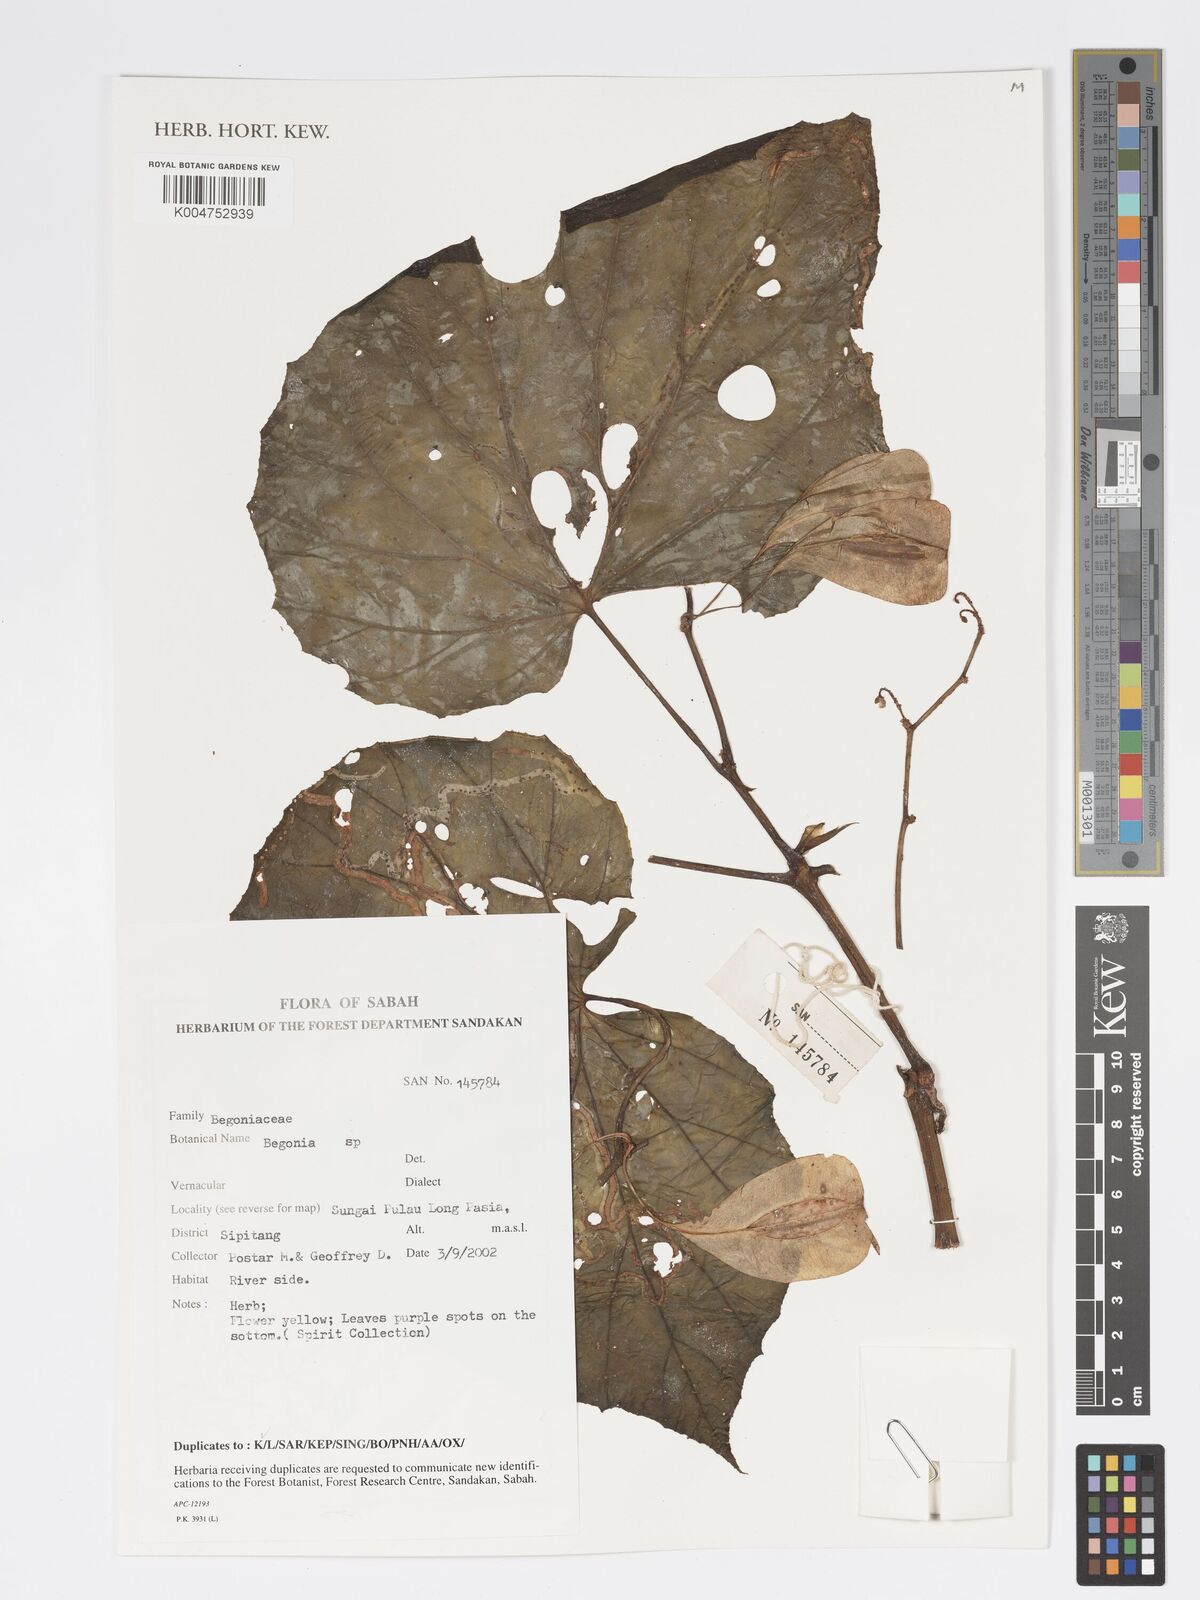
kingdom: Plantae
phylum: Tracheophyta
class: Magnoliopsida
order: Cucurbitales
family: Begoniaceae
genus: Begonia
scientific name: Begonia
